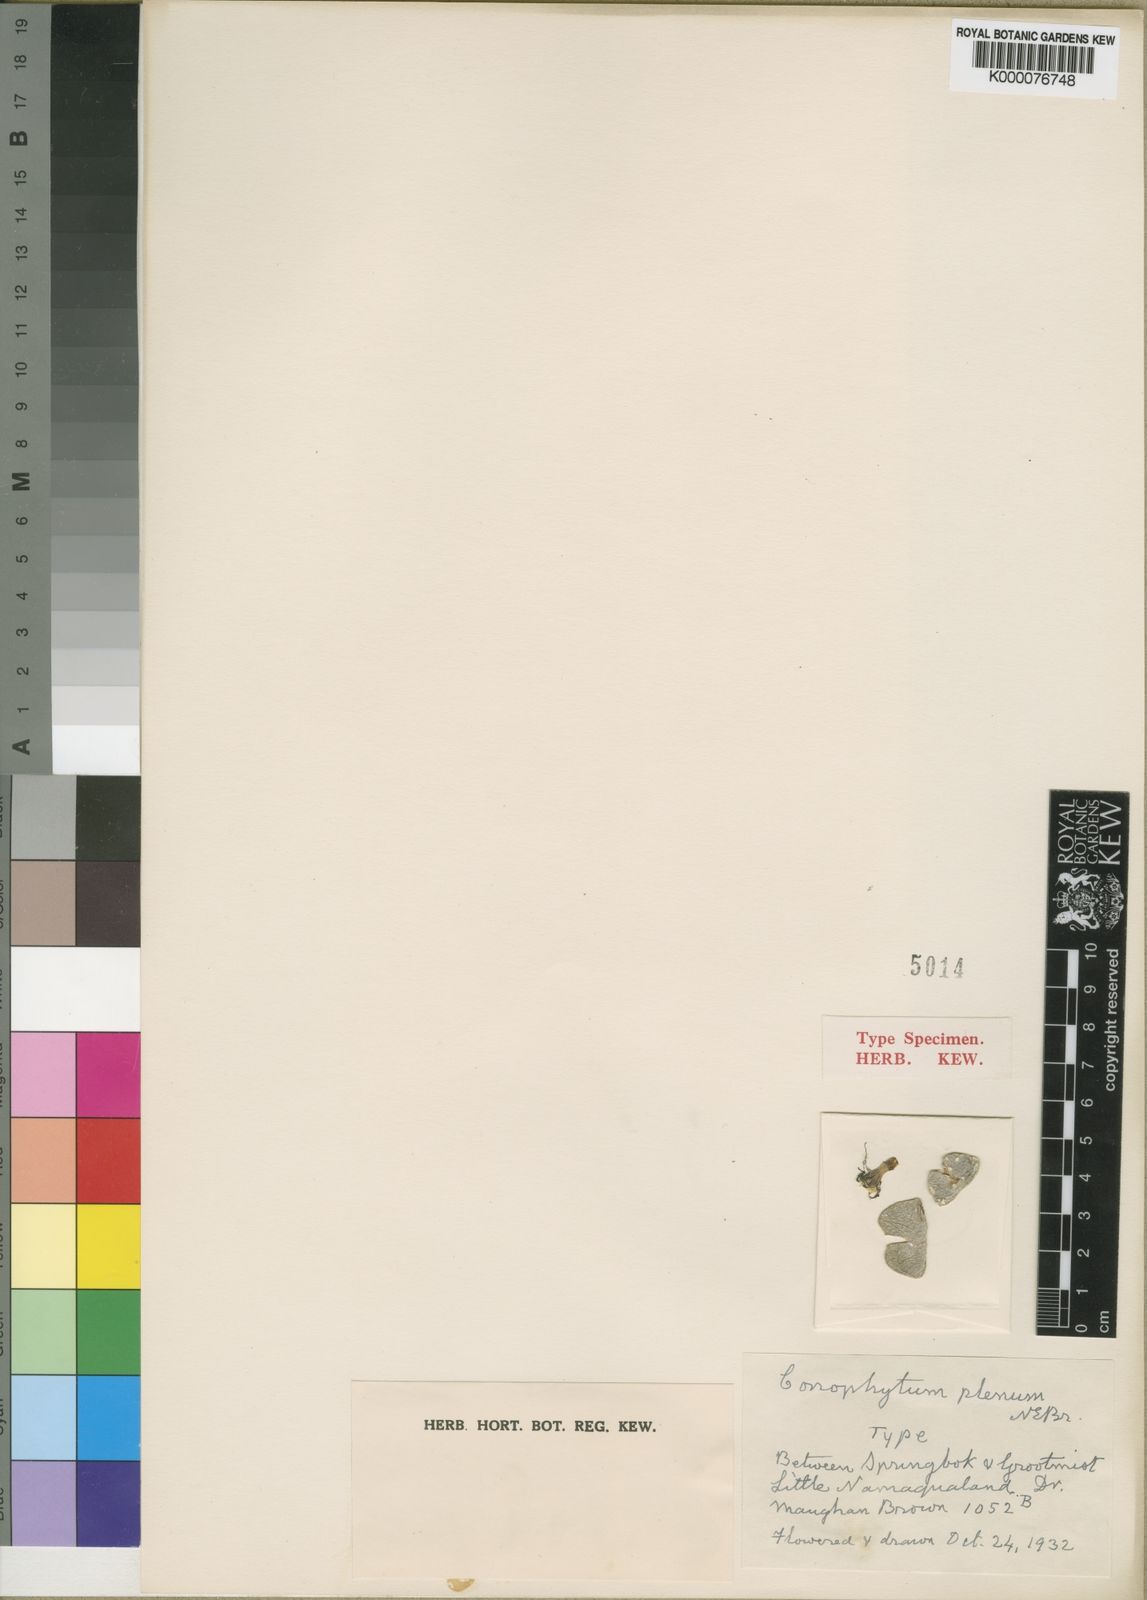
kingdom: Plantae
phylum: Tracheophyta
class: Magnoliopsida
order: Caryophyllales
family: Aizoaceae
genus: Conophytum
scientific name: Conophytum bilobum
